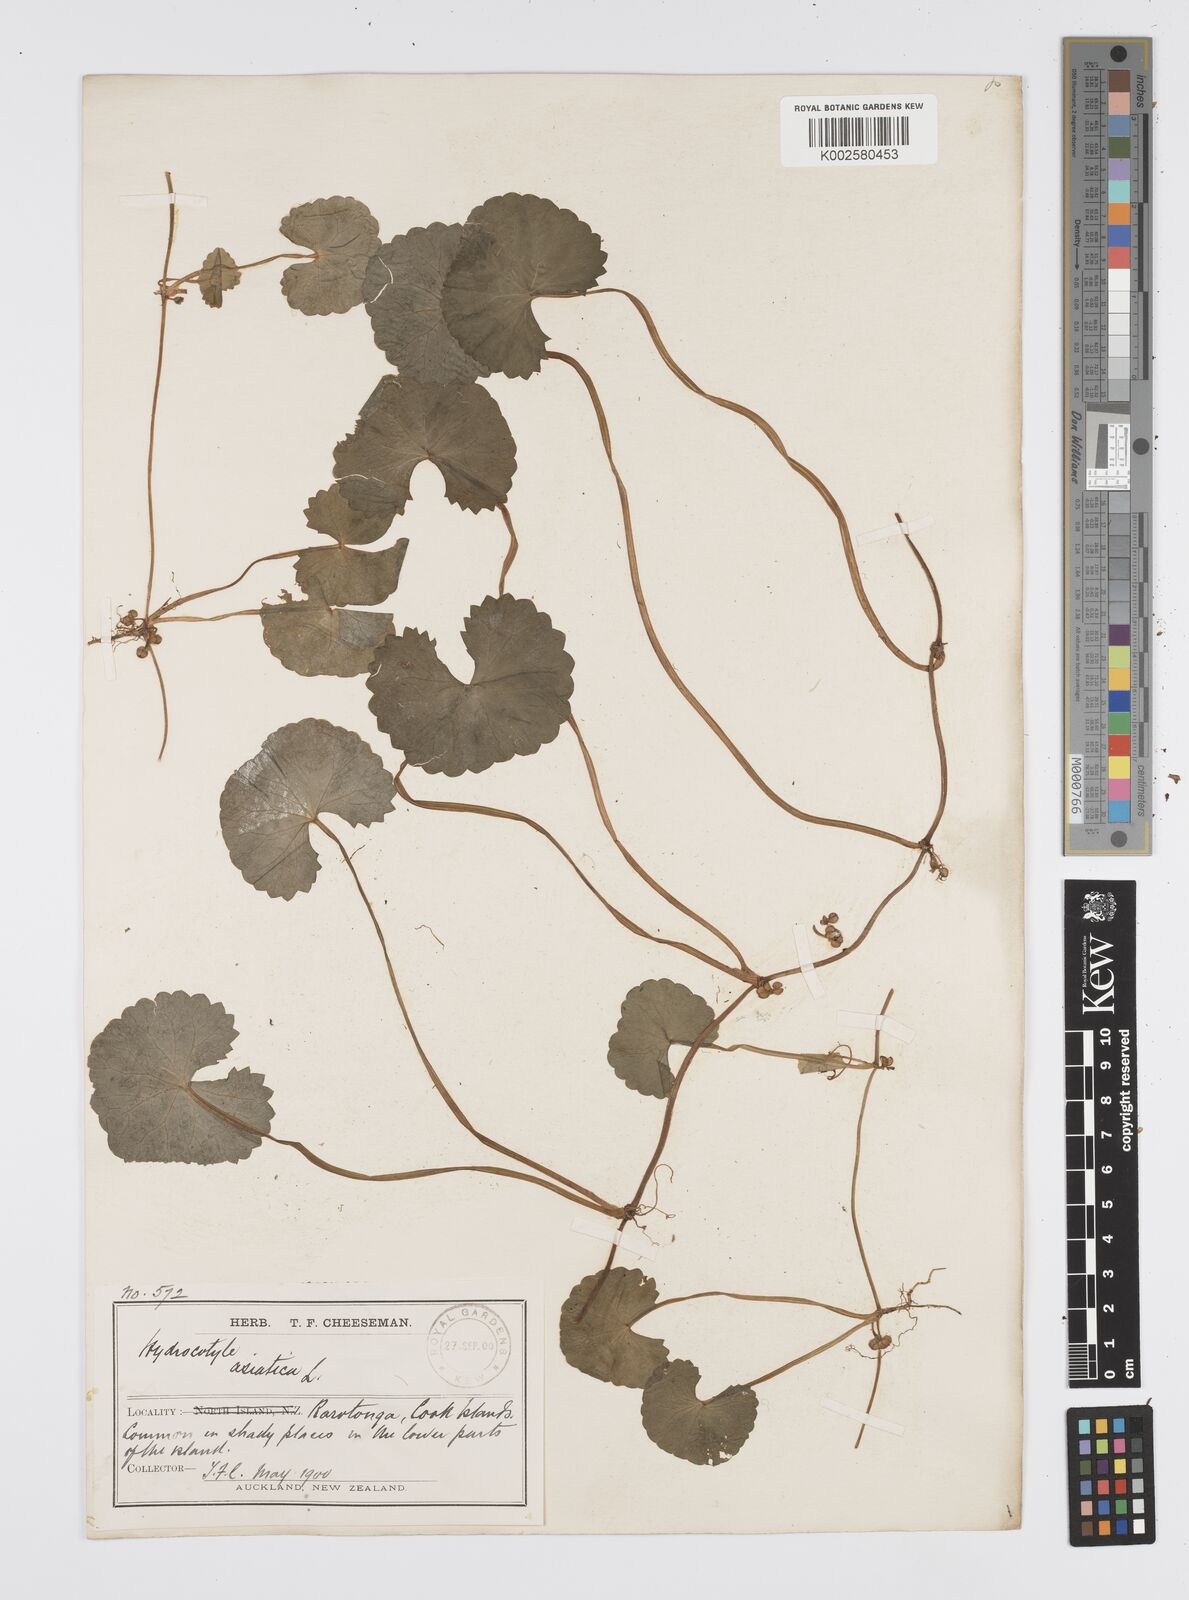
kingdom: Plantae
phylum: Tracheophyta
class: Magnoliopsida
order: Apiales
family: Apiaceae
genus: Centella
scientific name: Centella asiatica
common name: Spadeleaf
